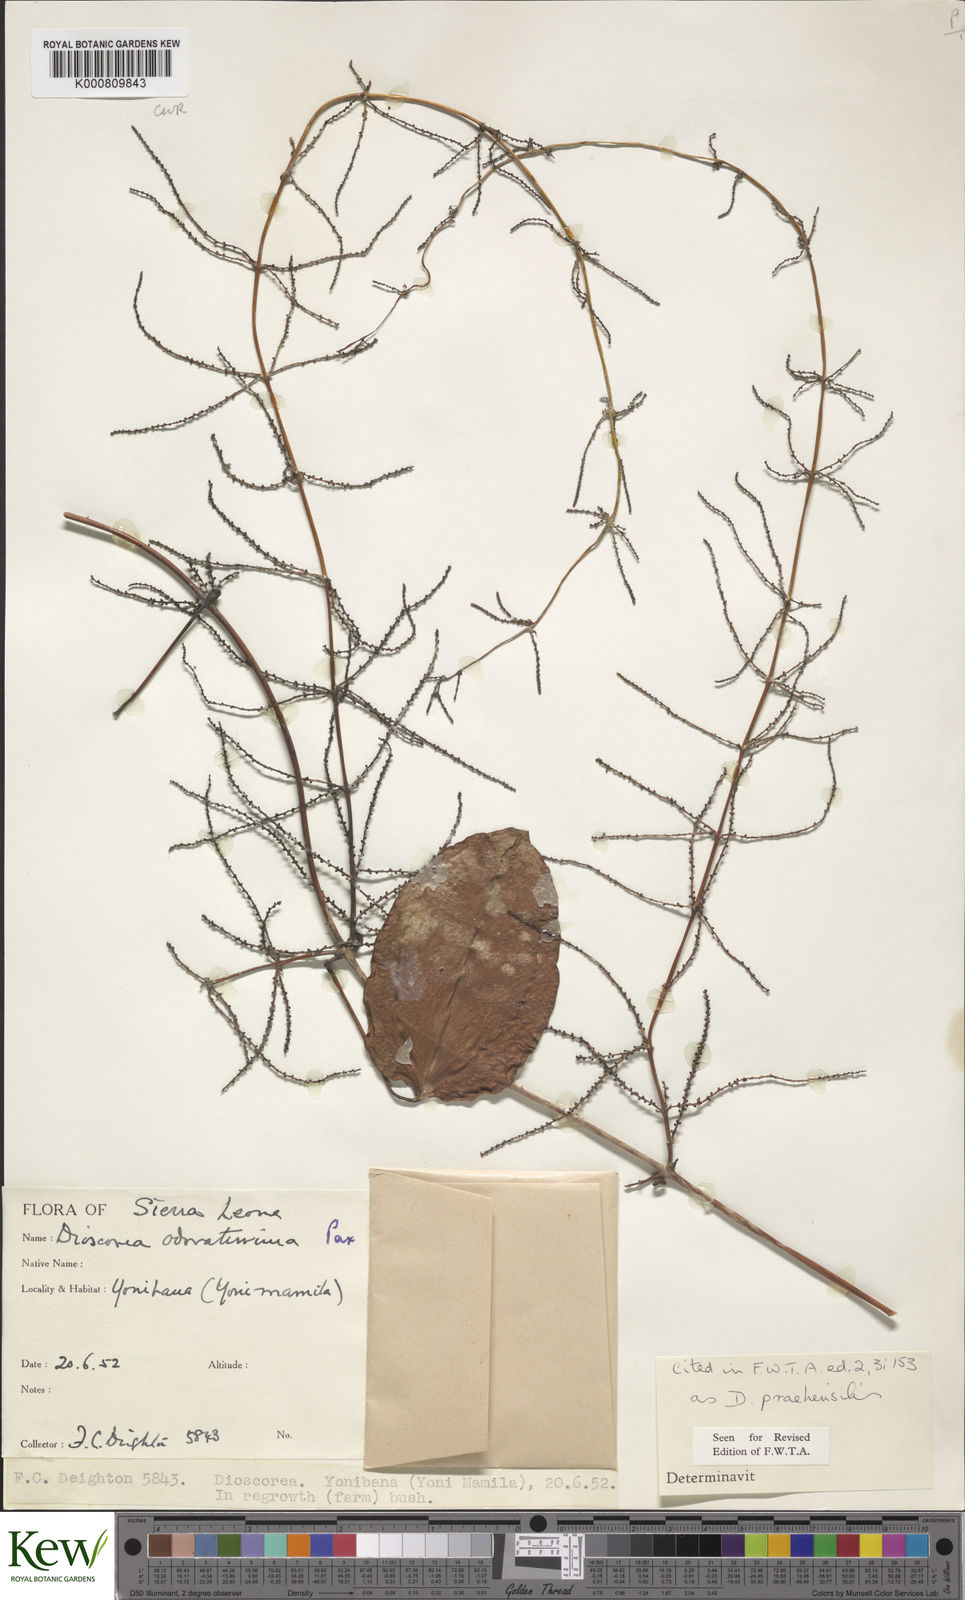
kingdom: Plantae
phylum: Tracheophyta
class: Liliopsida
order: Dioscoreales
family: Dioscoreaceae
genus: Dioscorea
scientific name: Dioscorea praehensilis
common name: Bush yam
